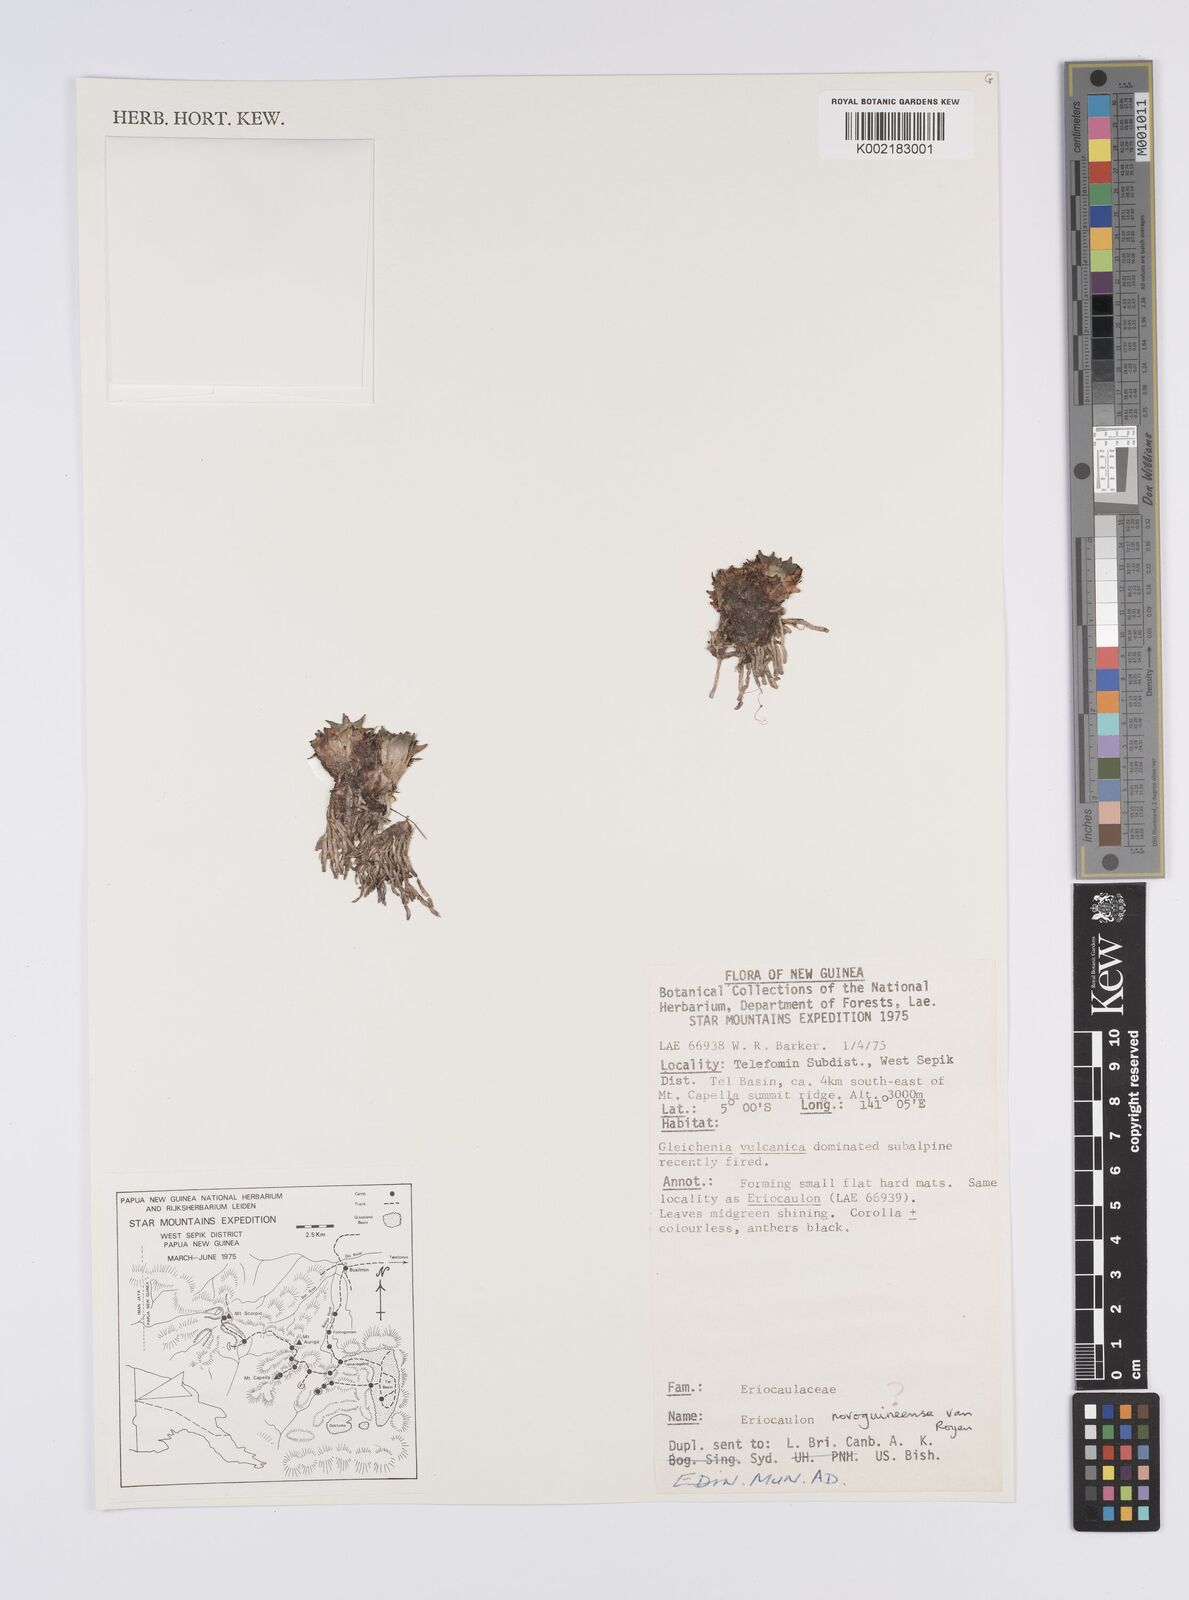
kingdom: Plantae
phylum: Tracheophyta
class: Liliopsida
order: Poales
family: Eriocaulaceae
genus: Eriocaulon
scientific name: Eriocaulon novoguineense
